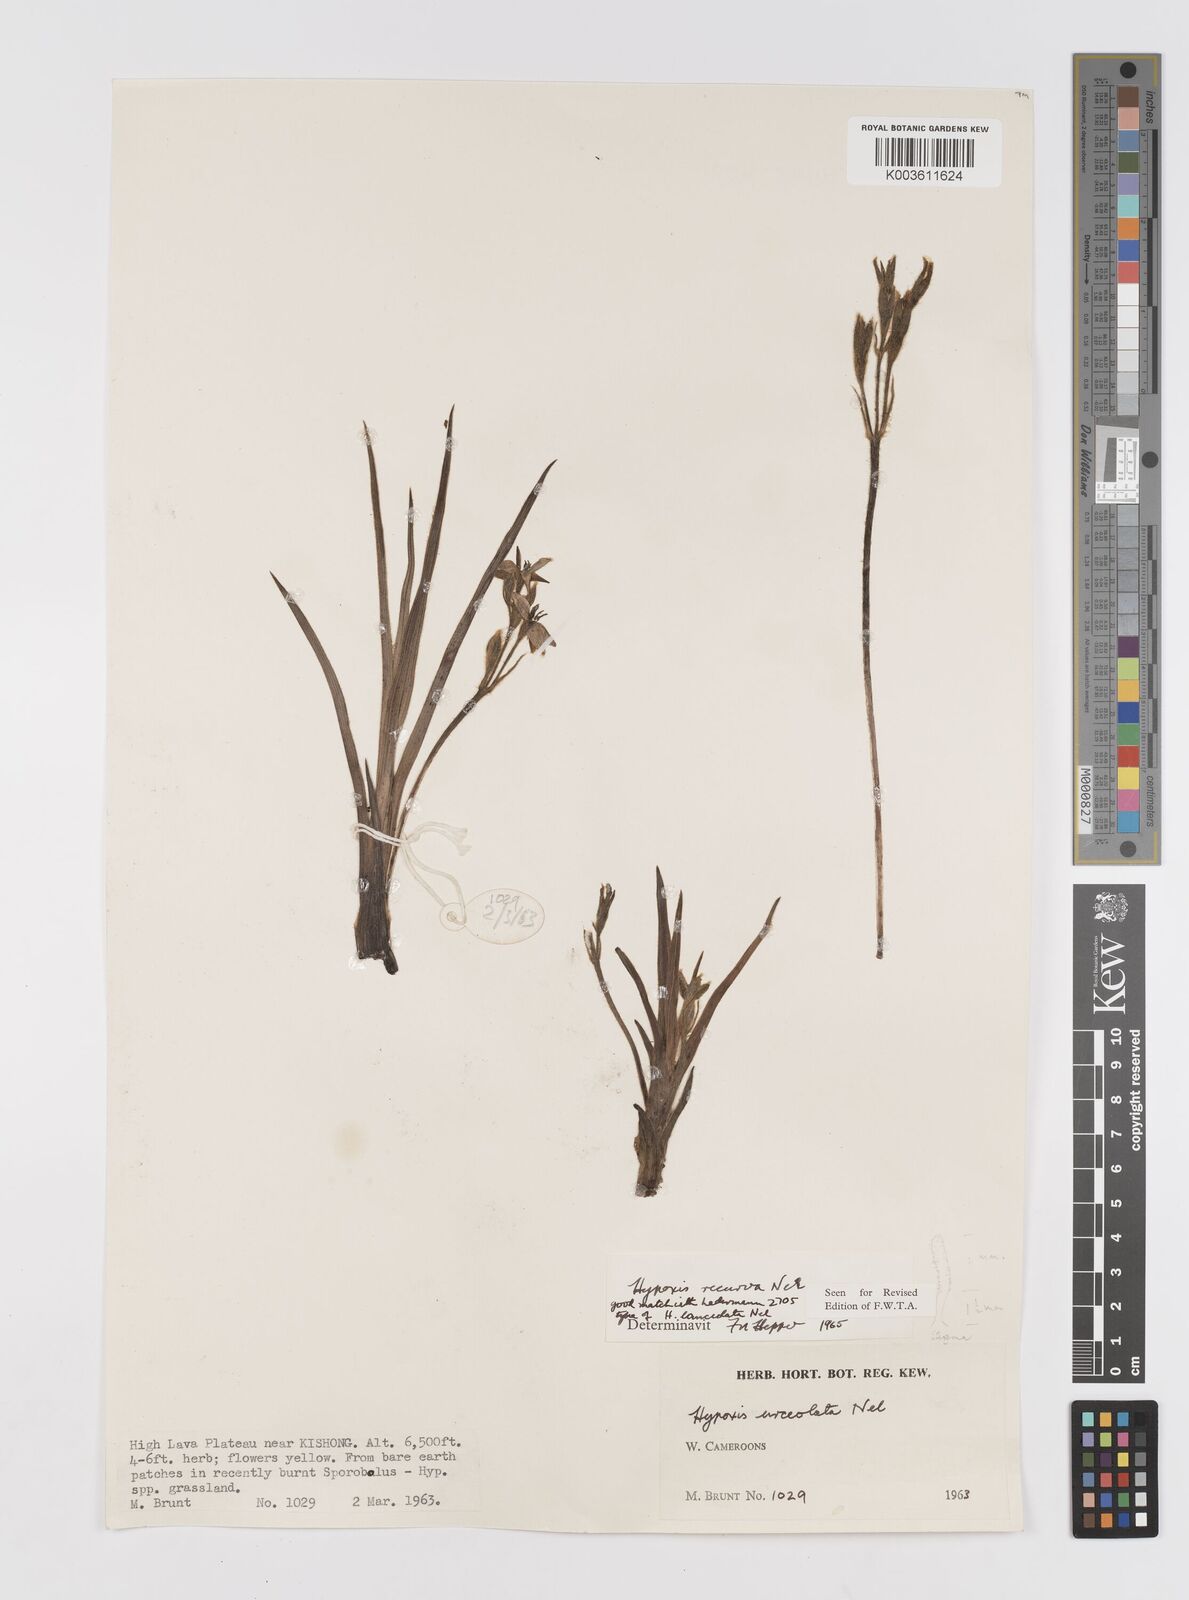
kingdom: Plantae
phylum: Tracheophyta
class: Liliopsida
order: Asparagales
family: Hypoxidaceae
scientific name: Hypoxidaceae
